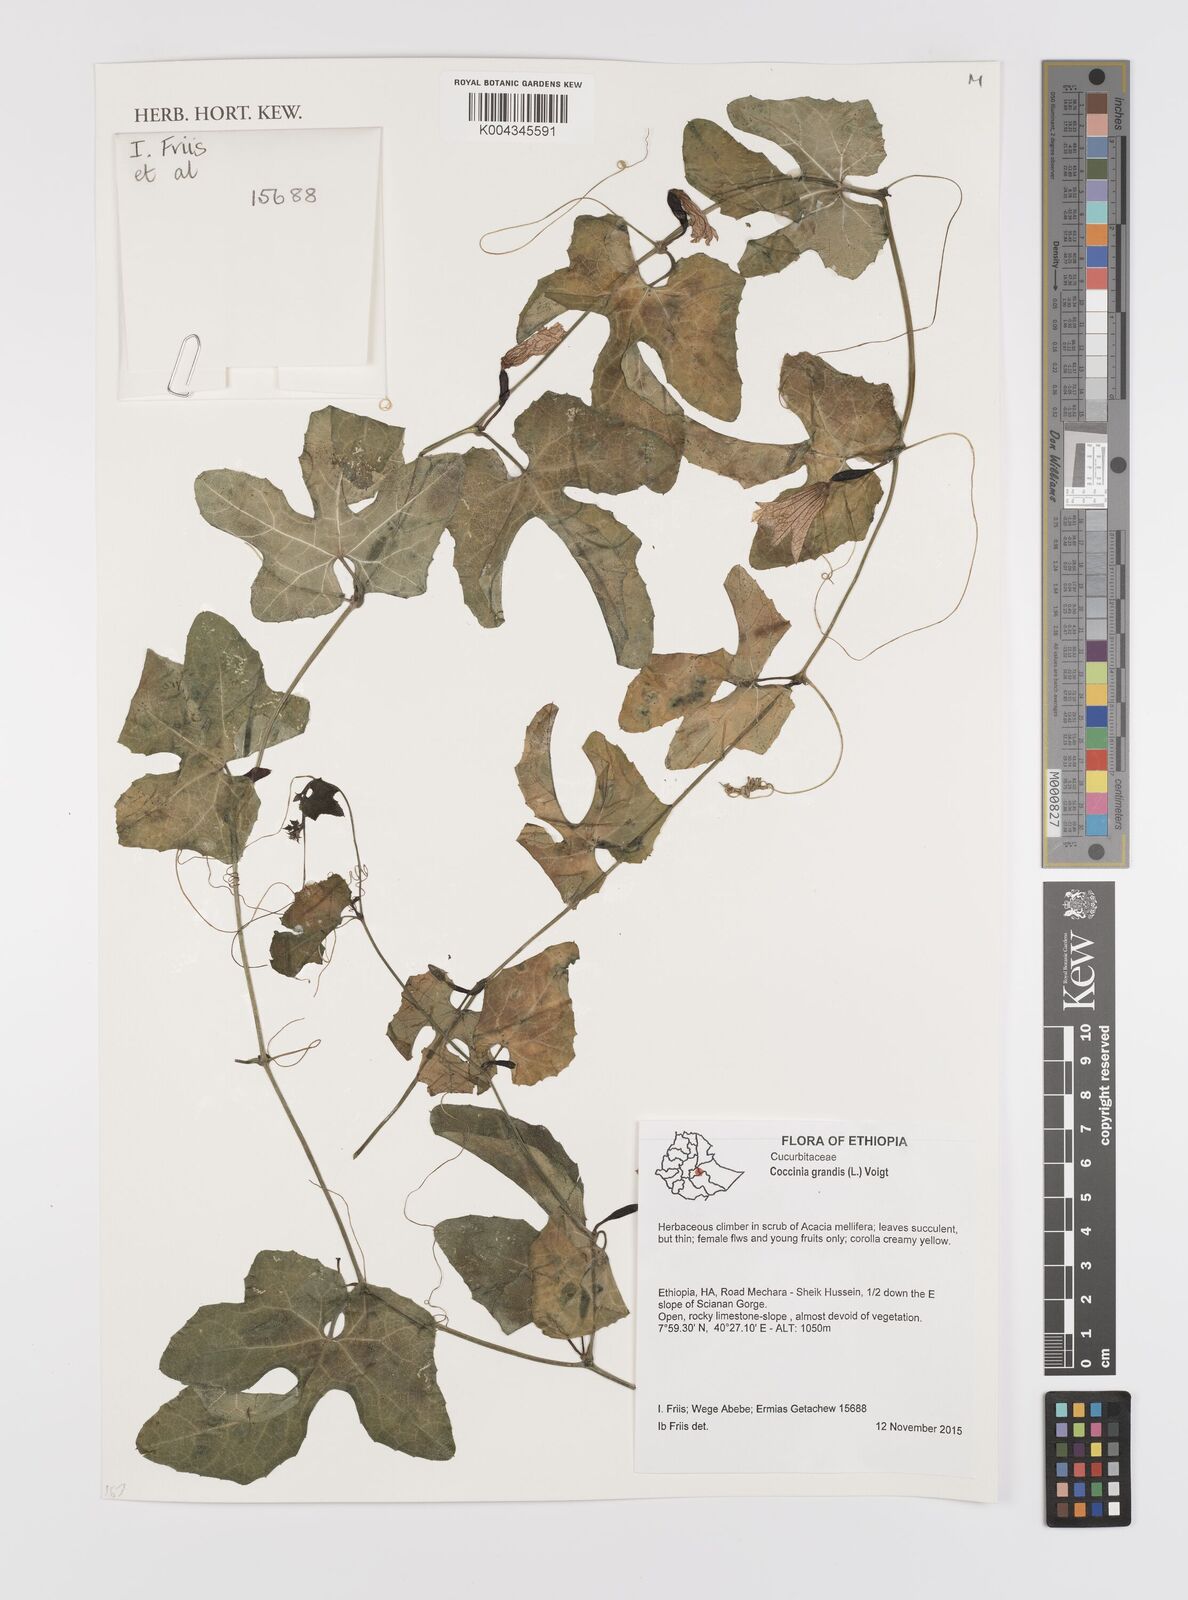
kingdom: Plantae
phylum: Tracheophyta
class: Magnoliopsida
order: Cucurbitales
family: Cucurbitaceae
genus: Coccinia
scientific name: Coccinia grandis
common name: Ivy gourd
